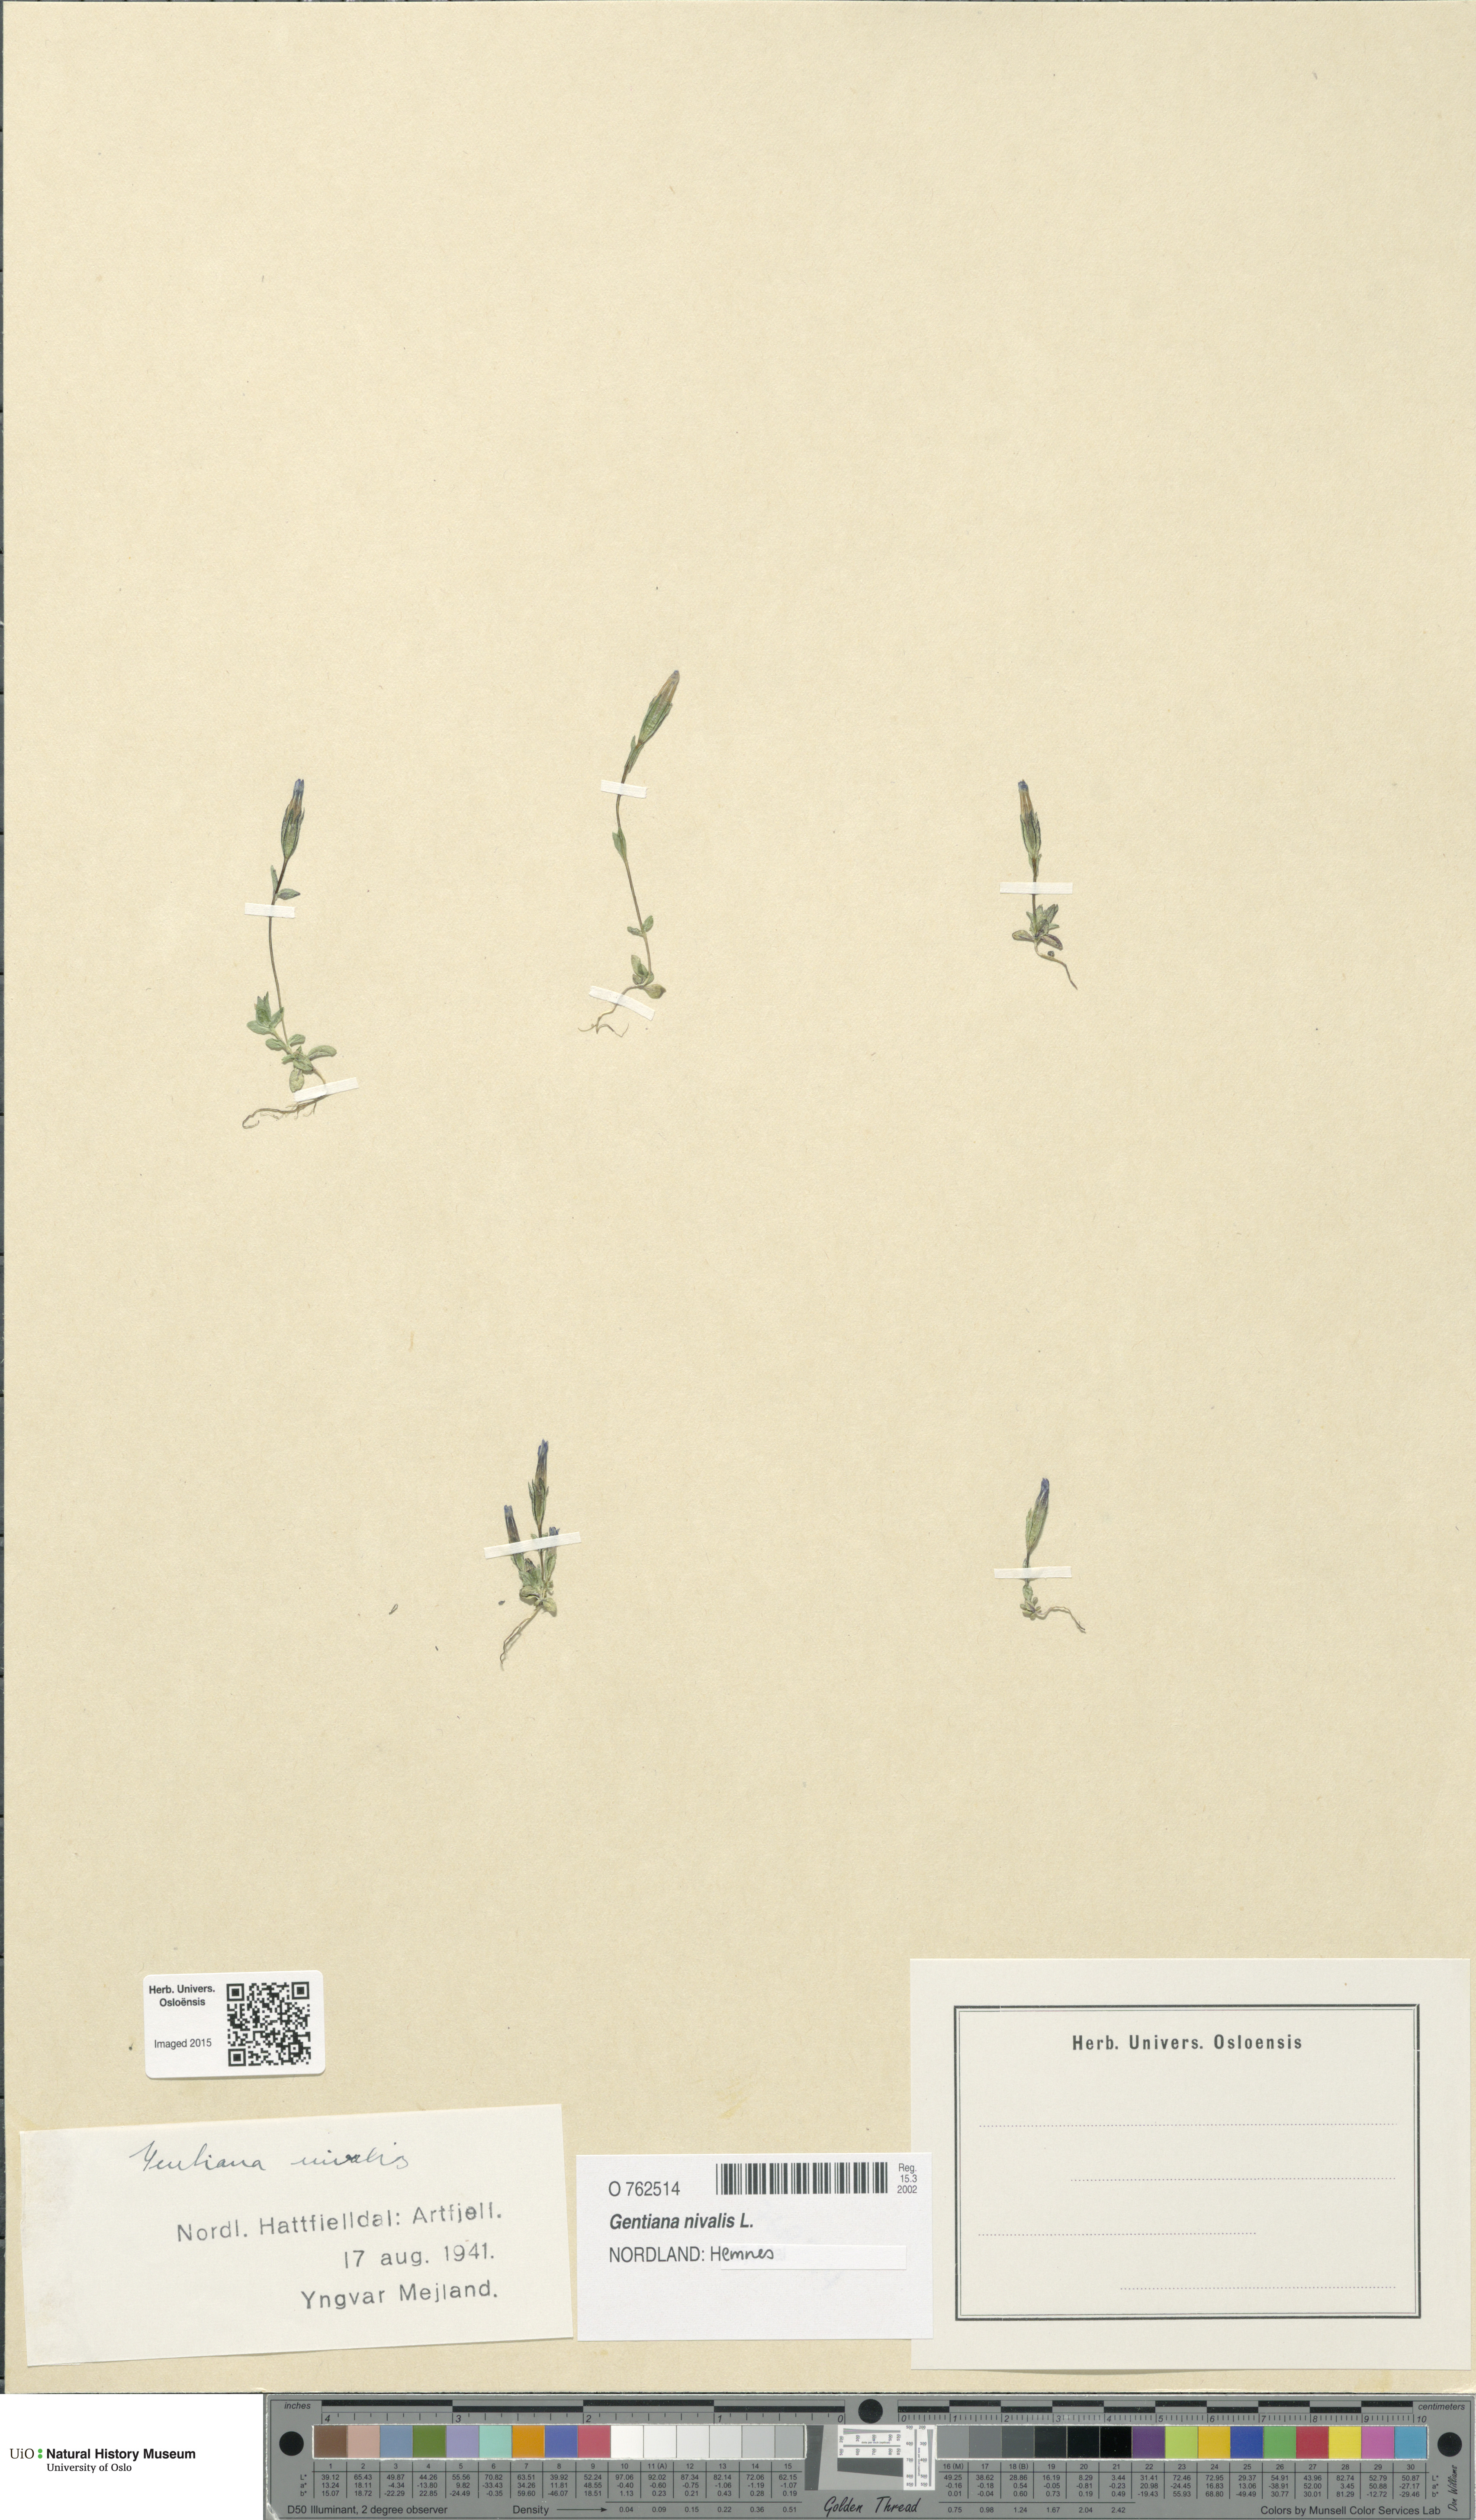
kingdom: Plantae
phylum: Tracheophyta
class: Magnoliopsida
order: Gentianales
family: Gentianaceae
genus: Gentiana
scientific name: Gentiana nivalis
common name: Alpine gentian
